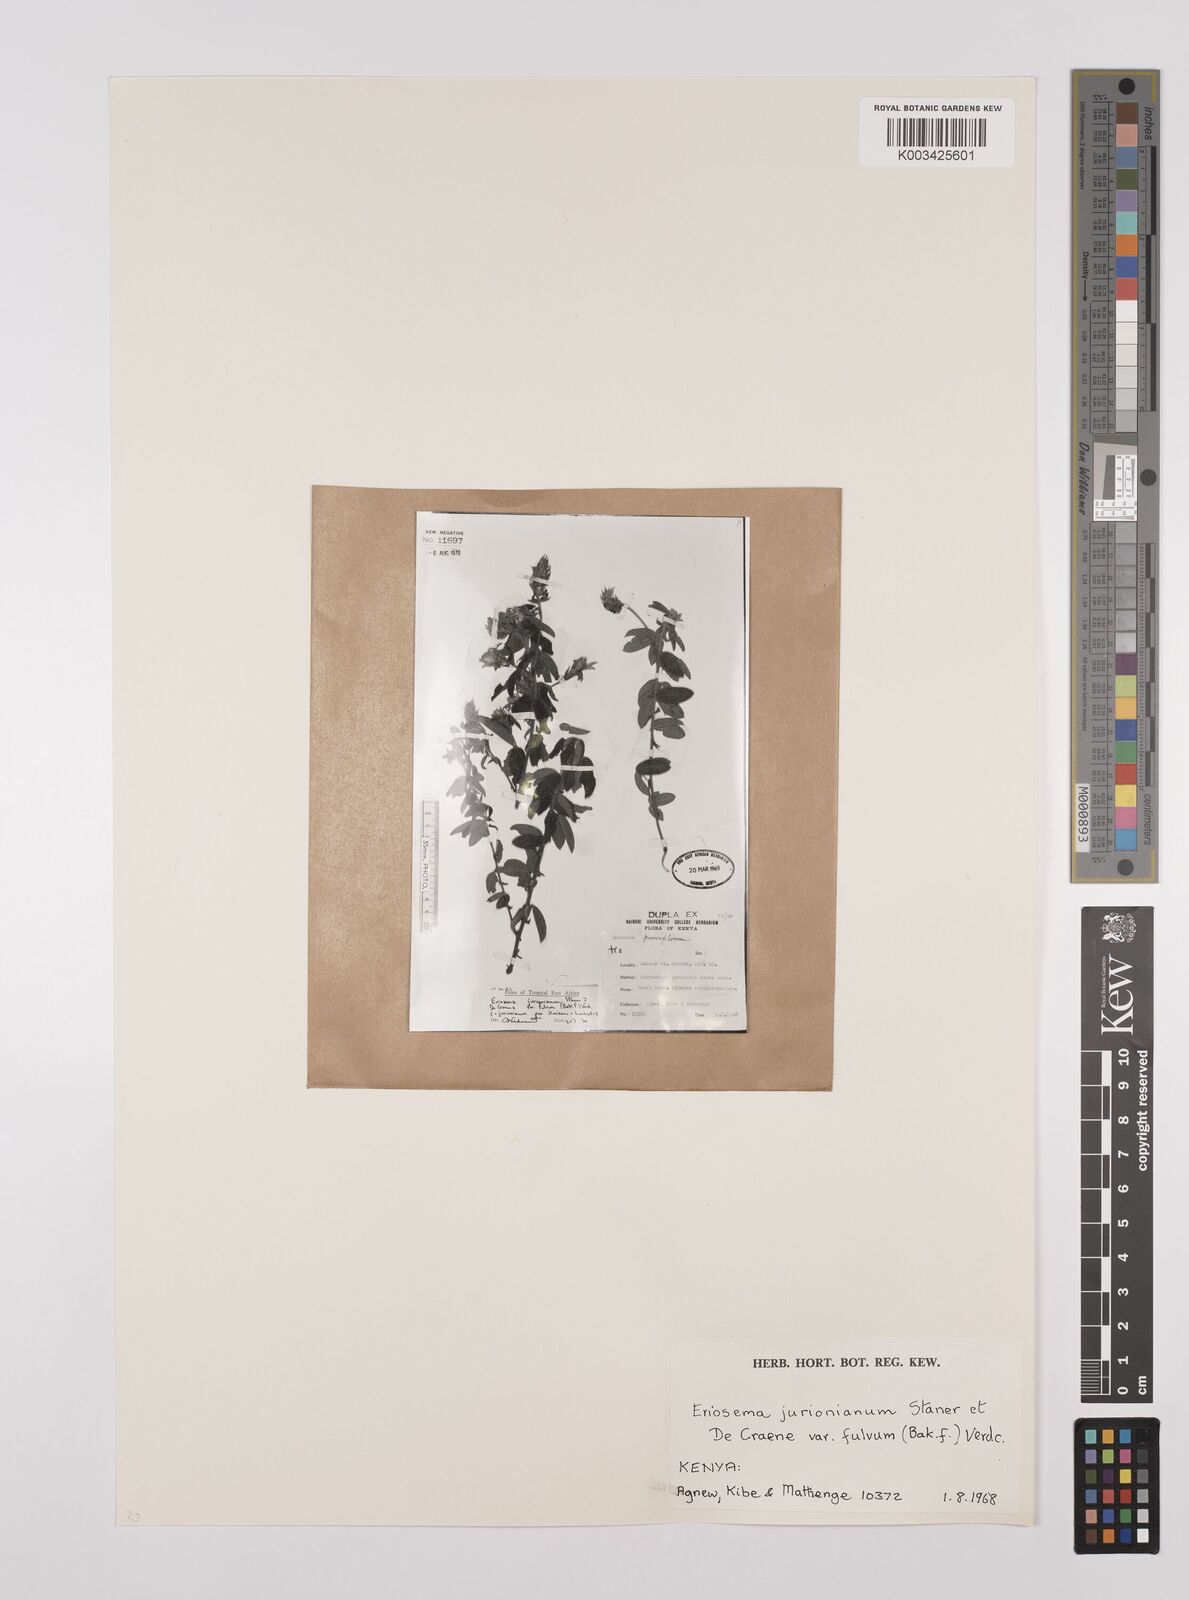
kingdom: Plantae
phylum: Tracheophyta
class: Magnoliopsida
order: Fabales
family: Fabaceae
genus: Eriosema
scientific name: Eriosema jurionianum
